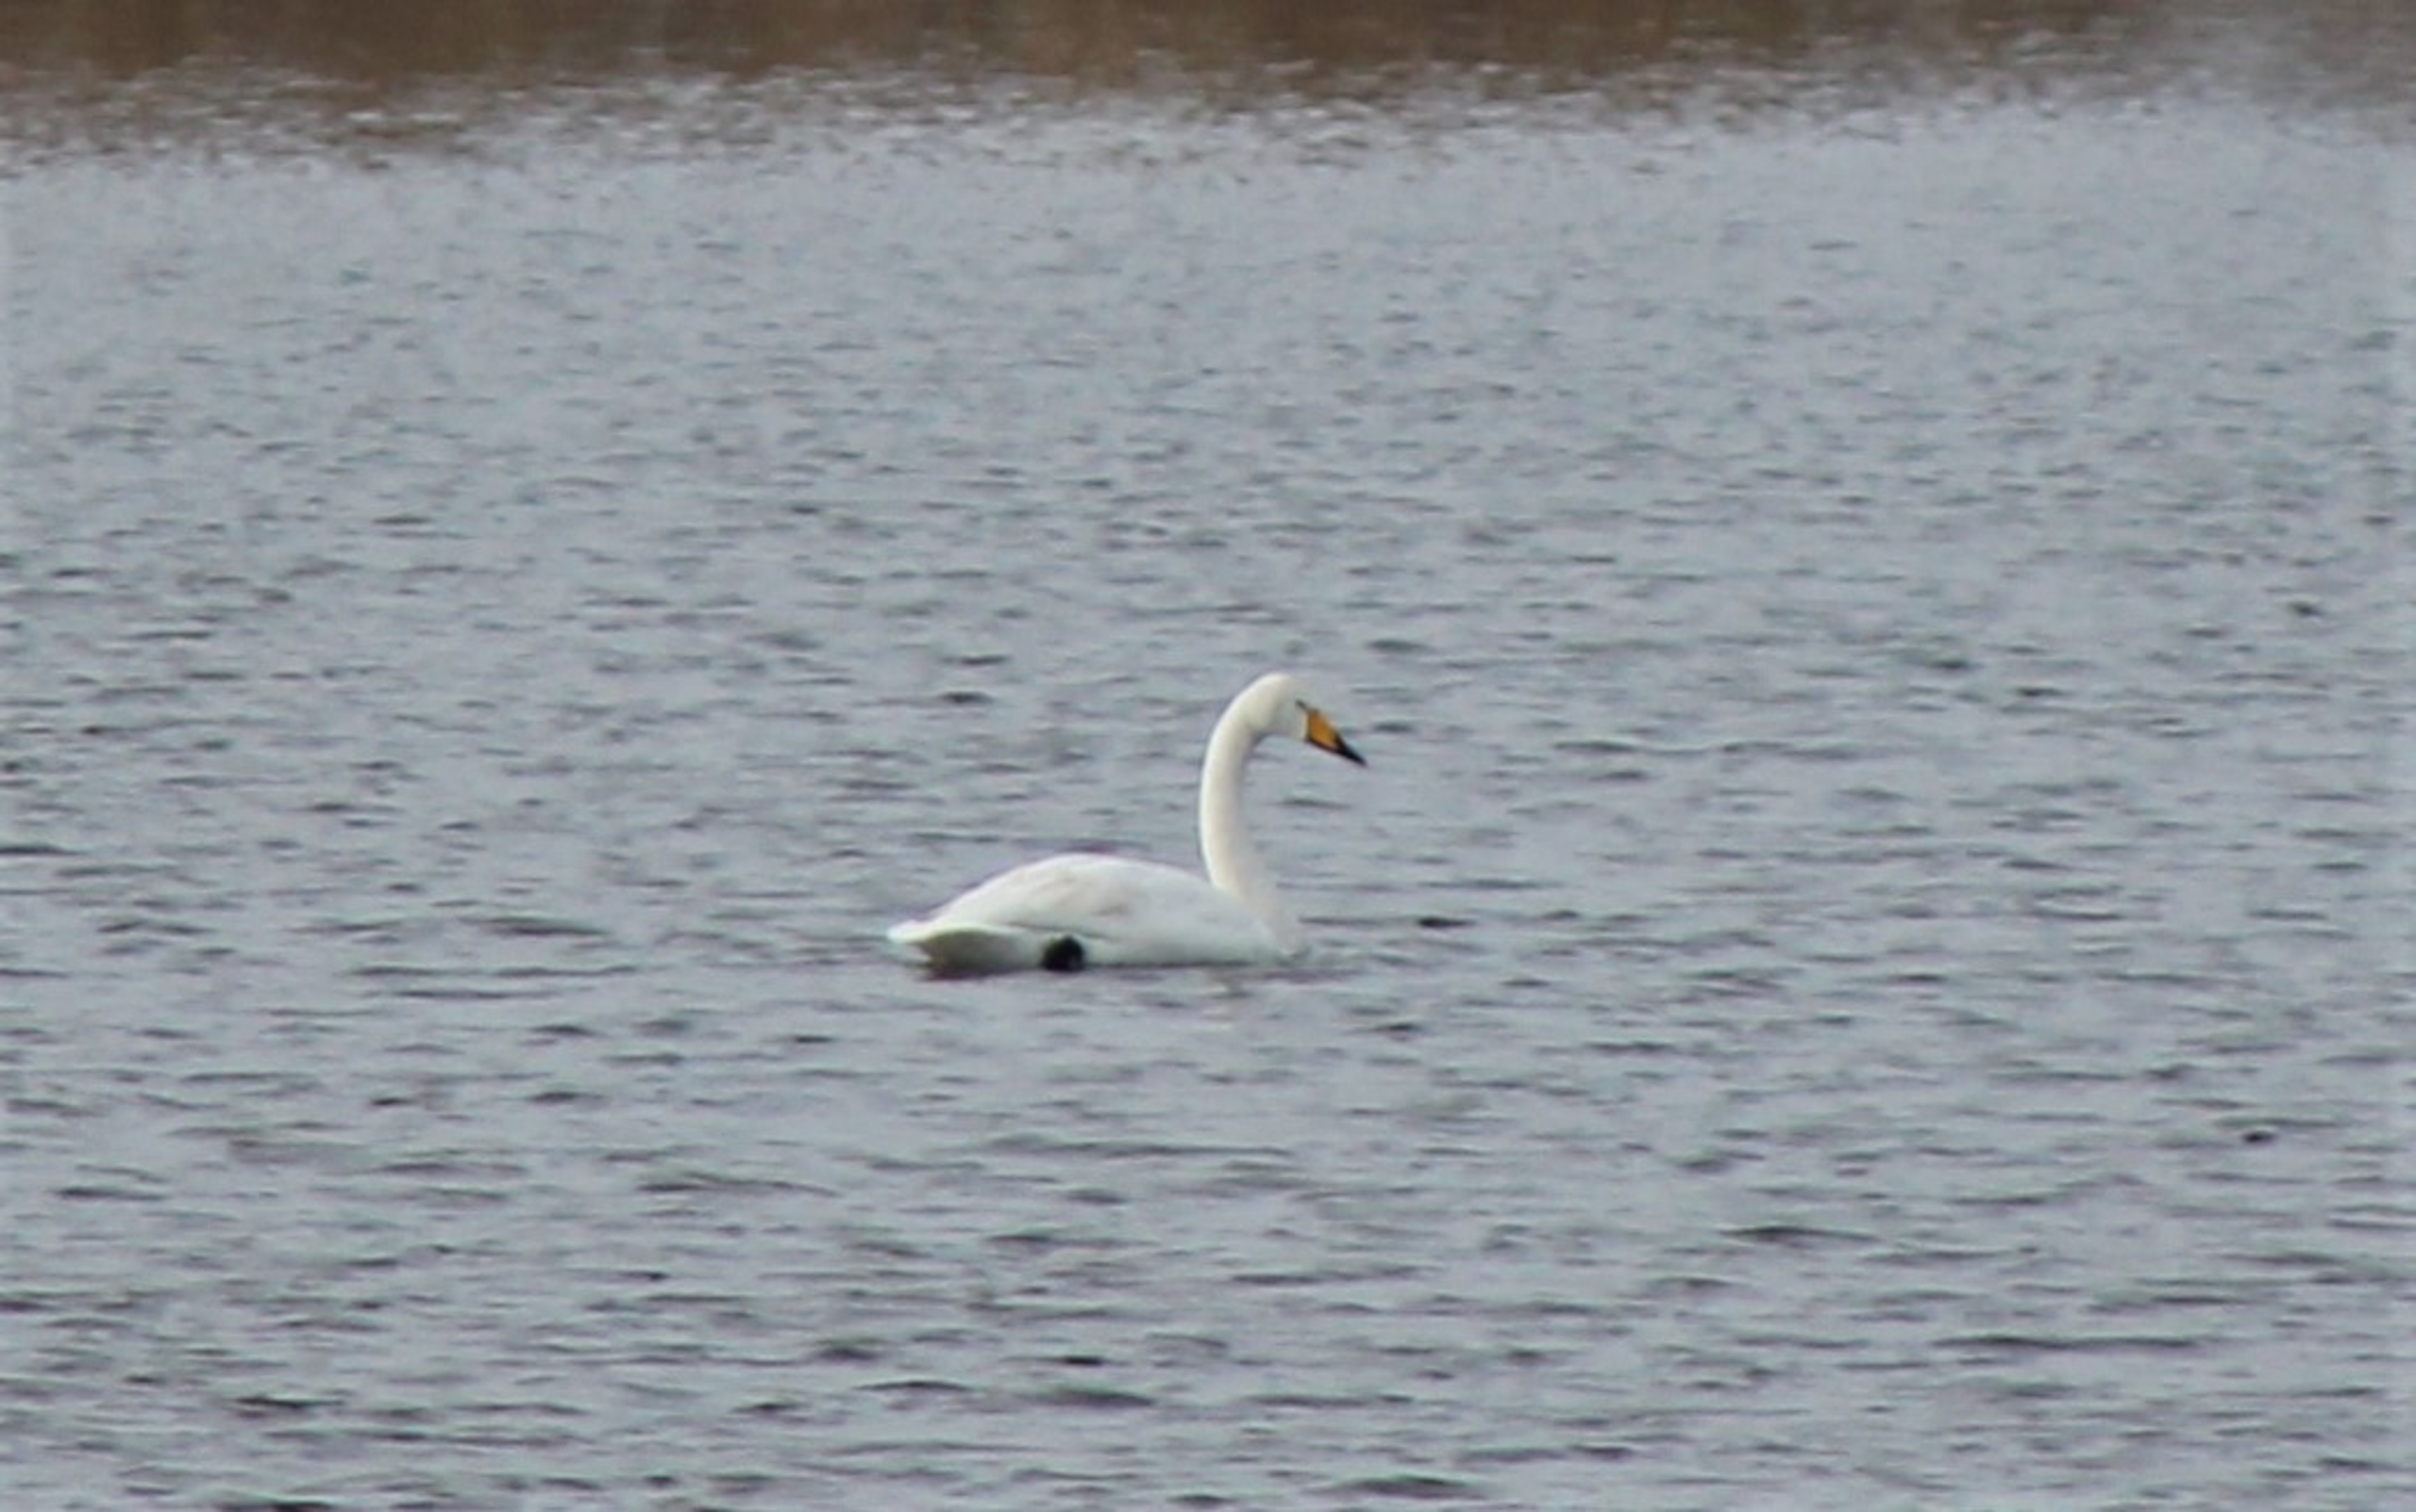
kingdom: Animalia
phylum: Chordata
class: Aves
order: Anseriformes
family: Anatidae
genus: Cygnus
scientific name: Cygnus cygnus
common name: Sangsvane
